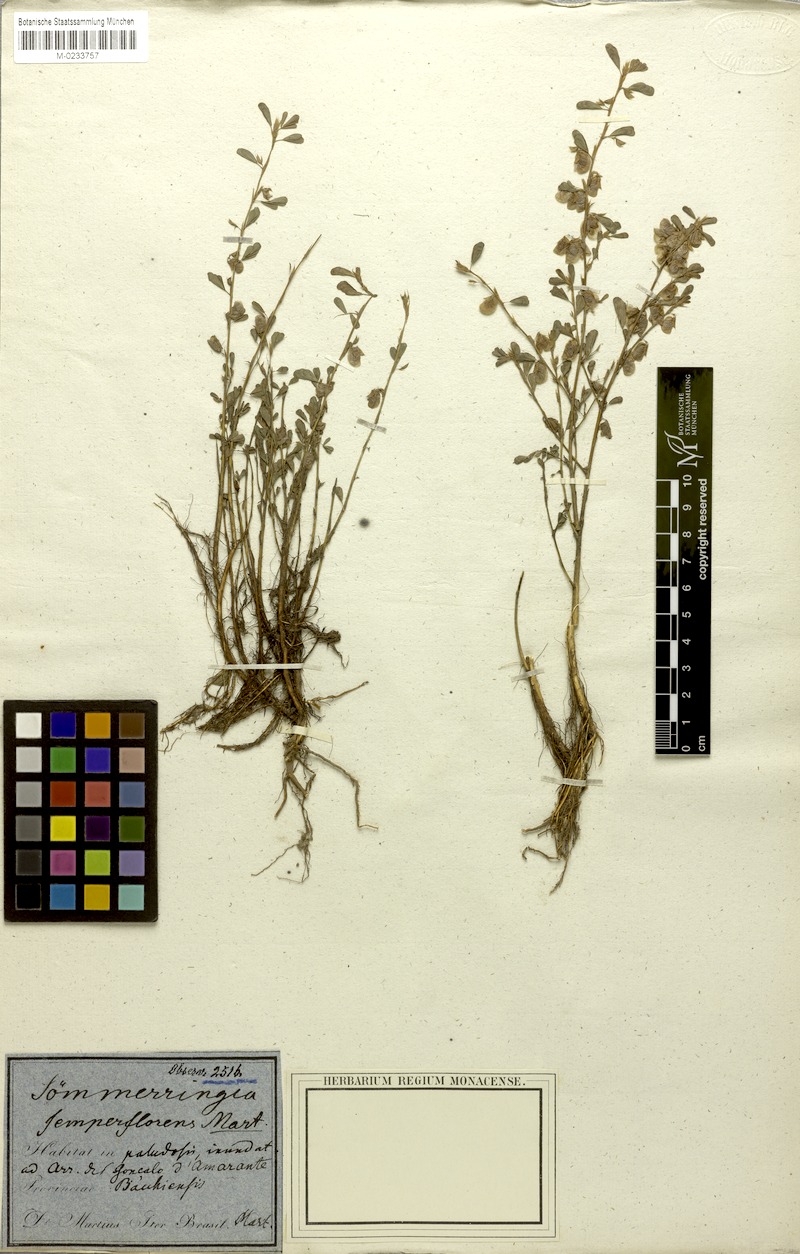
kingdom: Plantae
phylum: Tracheophyta
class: Magnoliopsida
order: Fabales
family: Fabaceae
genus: Soemmeringia
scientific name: Soemmeringia semperflorens
